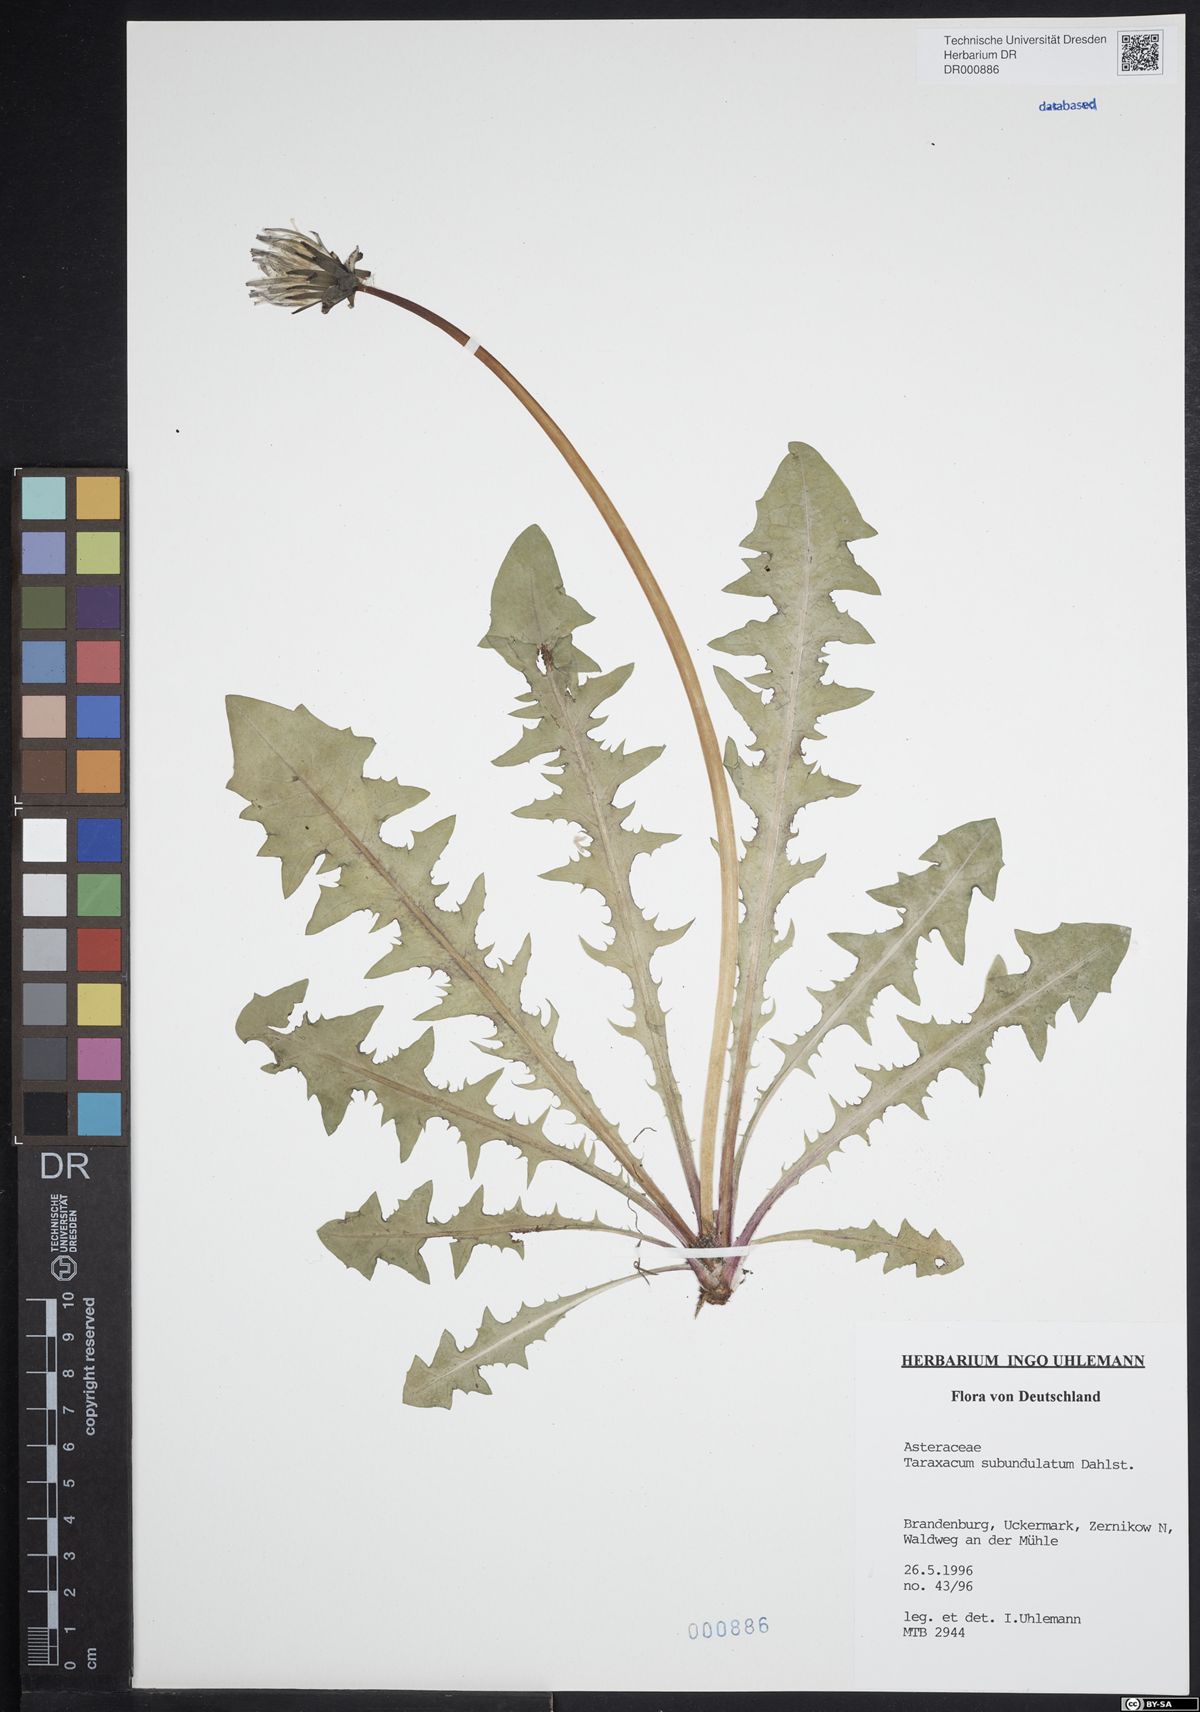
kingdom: Plantae
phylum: Tracheophyta
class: Magnoliopsida
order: Asterales
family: Asteraceae
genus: Taraxacum
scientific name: Taraxacum subundulatum
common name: Complex-leaved dandelion
